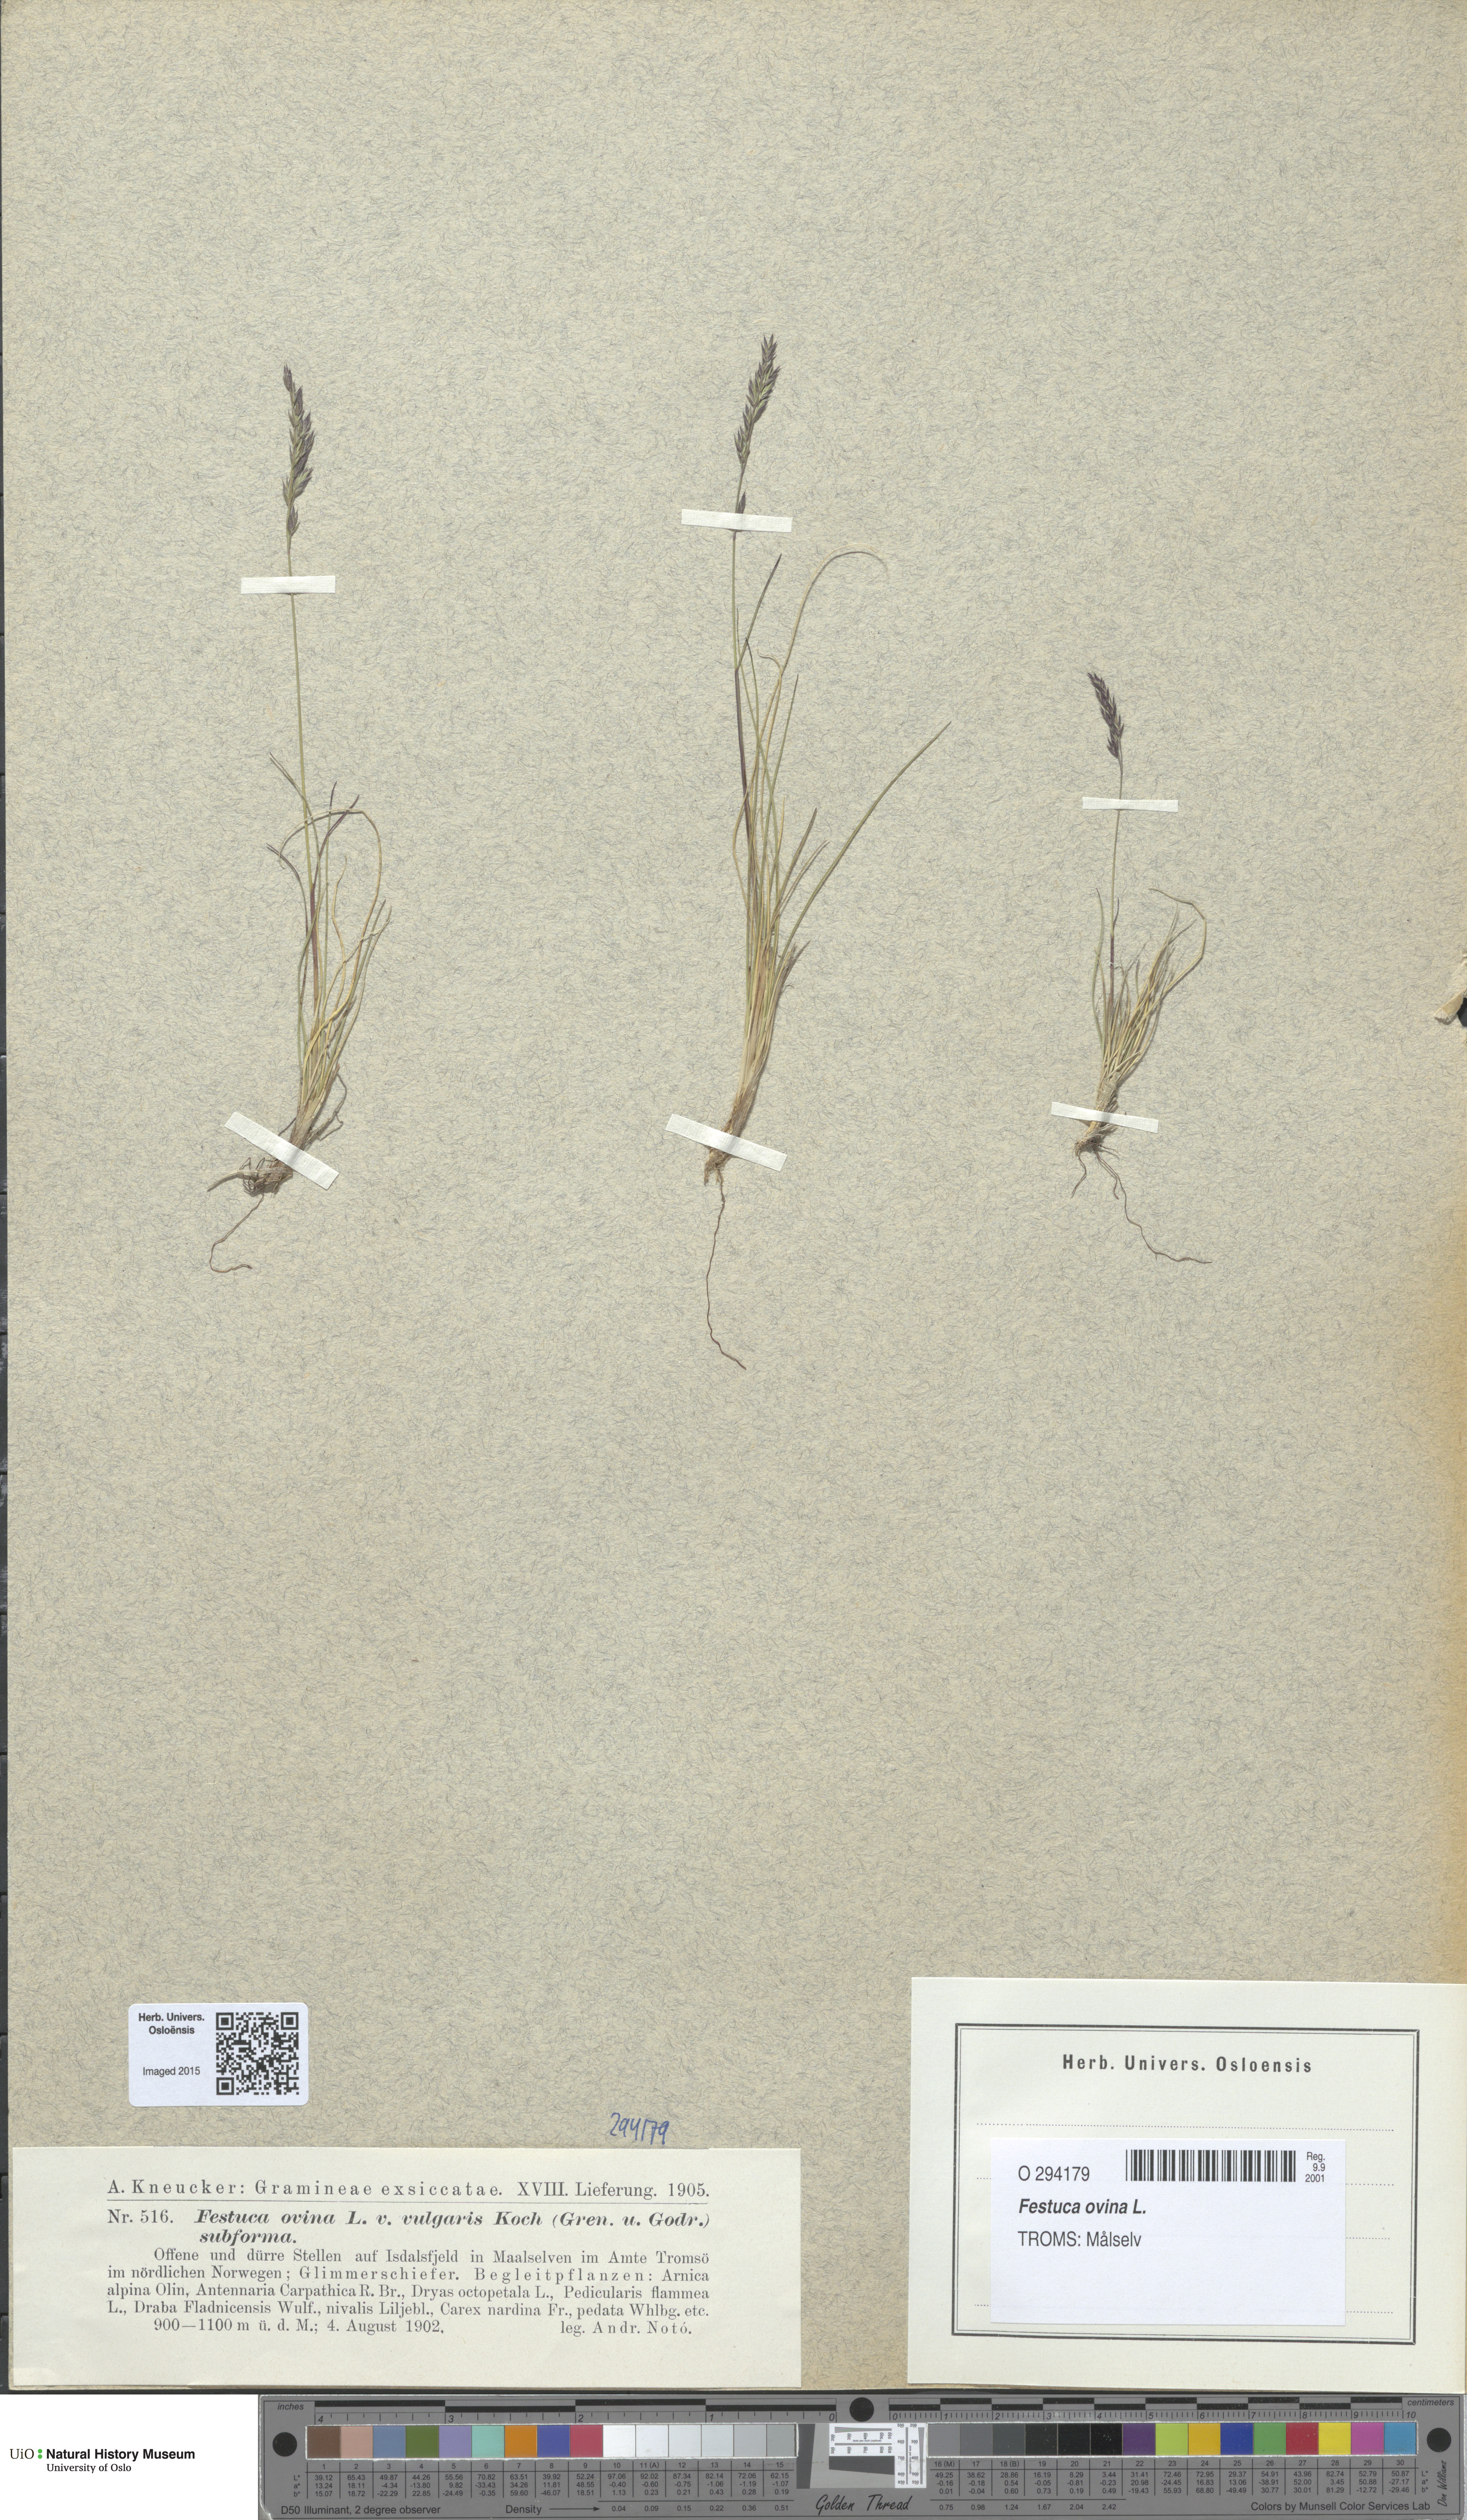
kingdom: Plantae
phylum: Tracheophyta
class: Liliopsida
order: Poales
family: Poaceae
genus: Festuca
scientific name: Festuca ovina
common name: Sheep fescue
